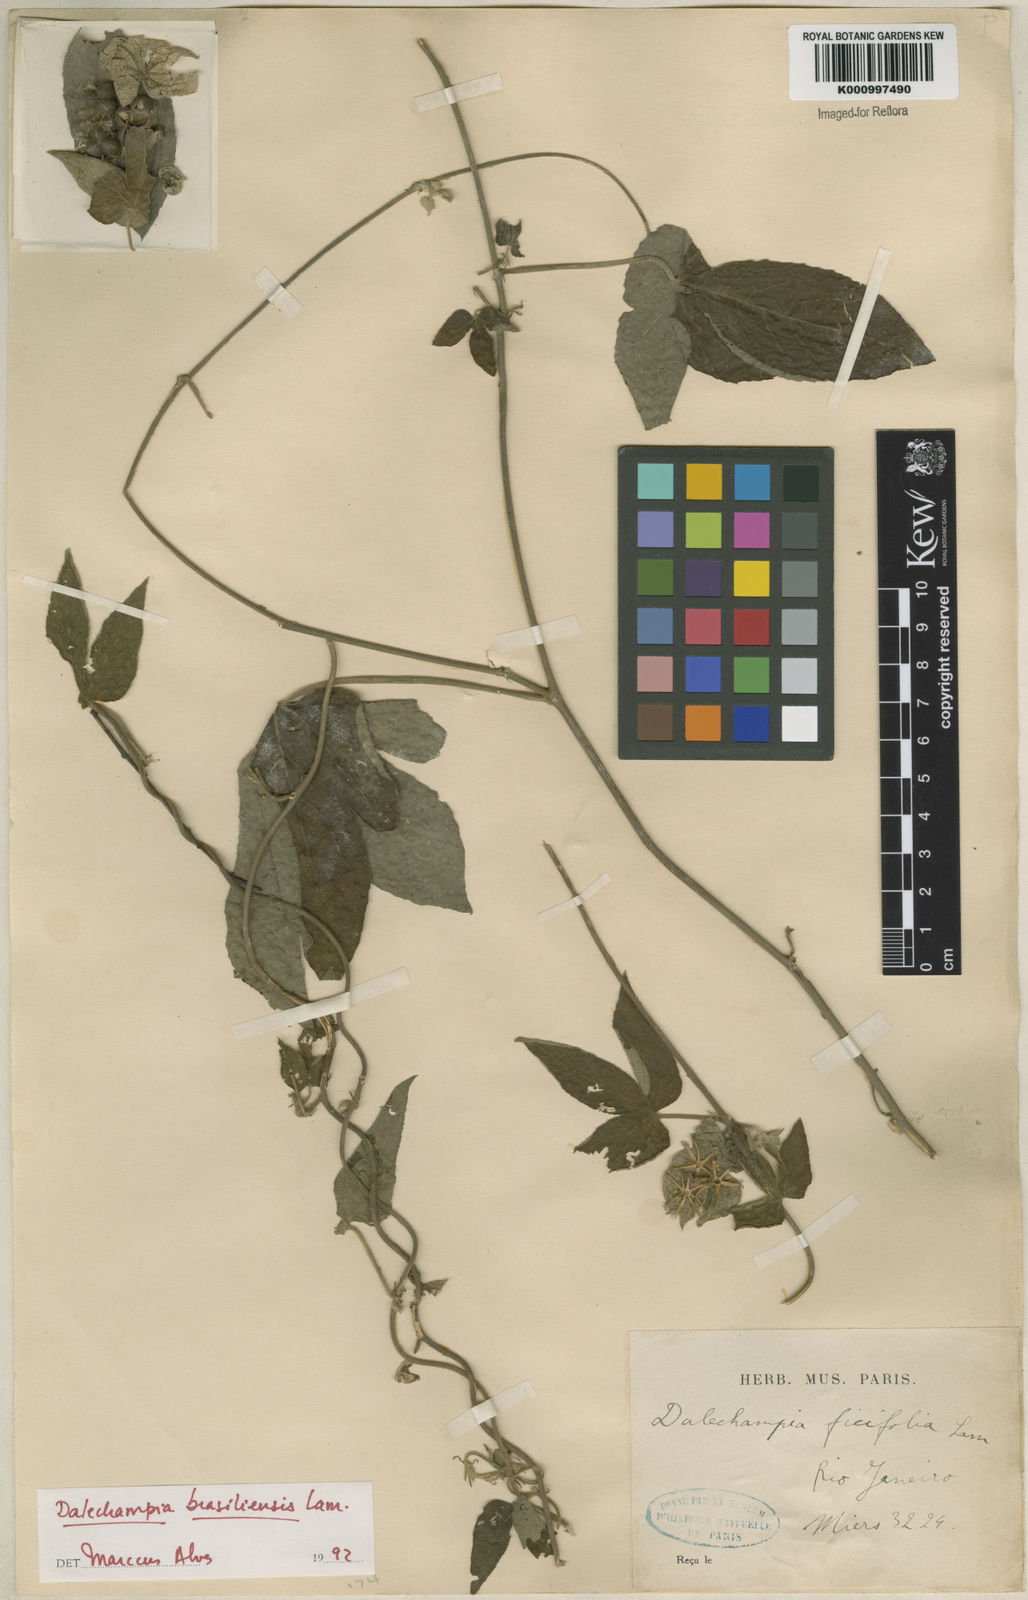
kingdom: Plantae
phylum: Tracheophyta
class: Magnoliopsida
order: Malpighiales
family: Euphorbiaceae
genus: Dalechampia
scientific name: Dalechampia brasiliensis
